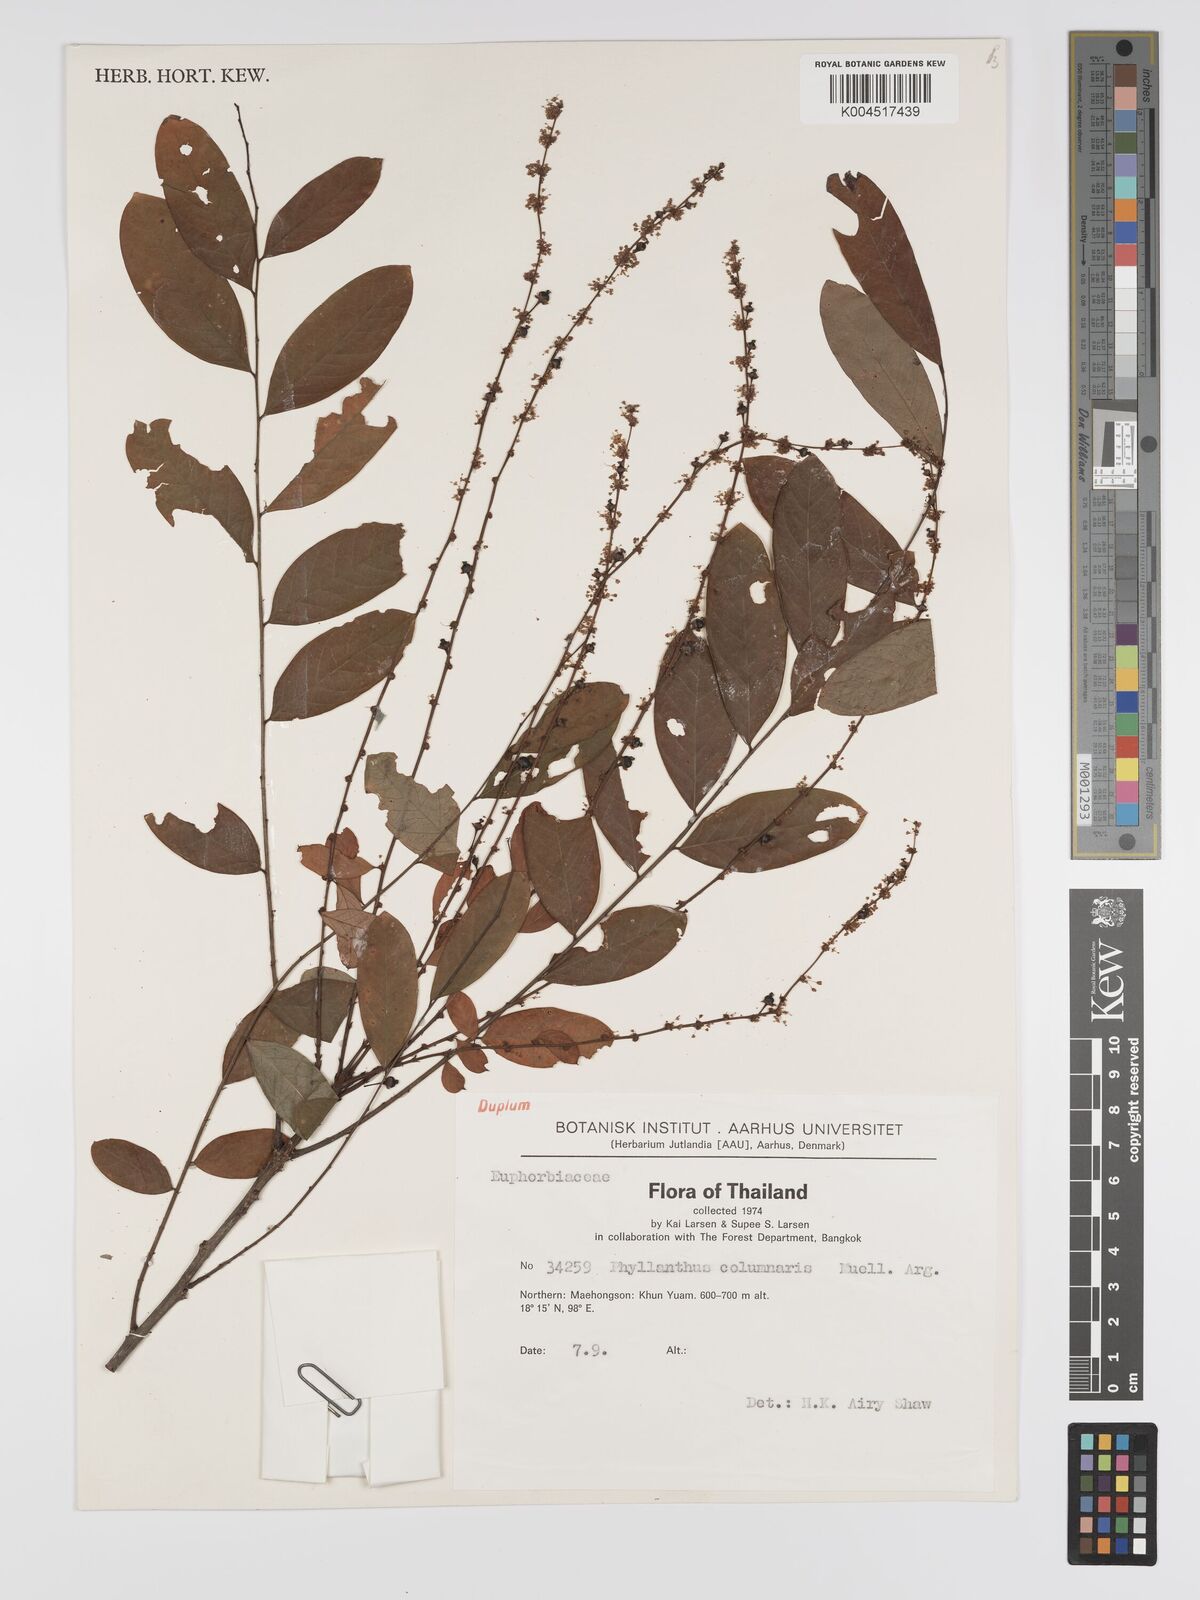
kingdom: Plantae
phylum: Tracheophyta
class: Magnoliopsida
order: Malpighiales
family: Phyllanthaceae
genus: Phyllanthus
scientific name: Phyllanthus
